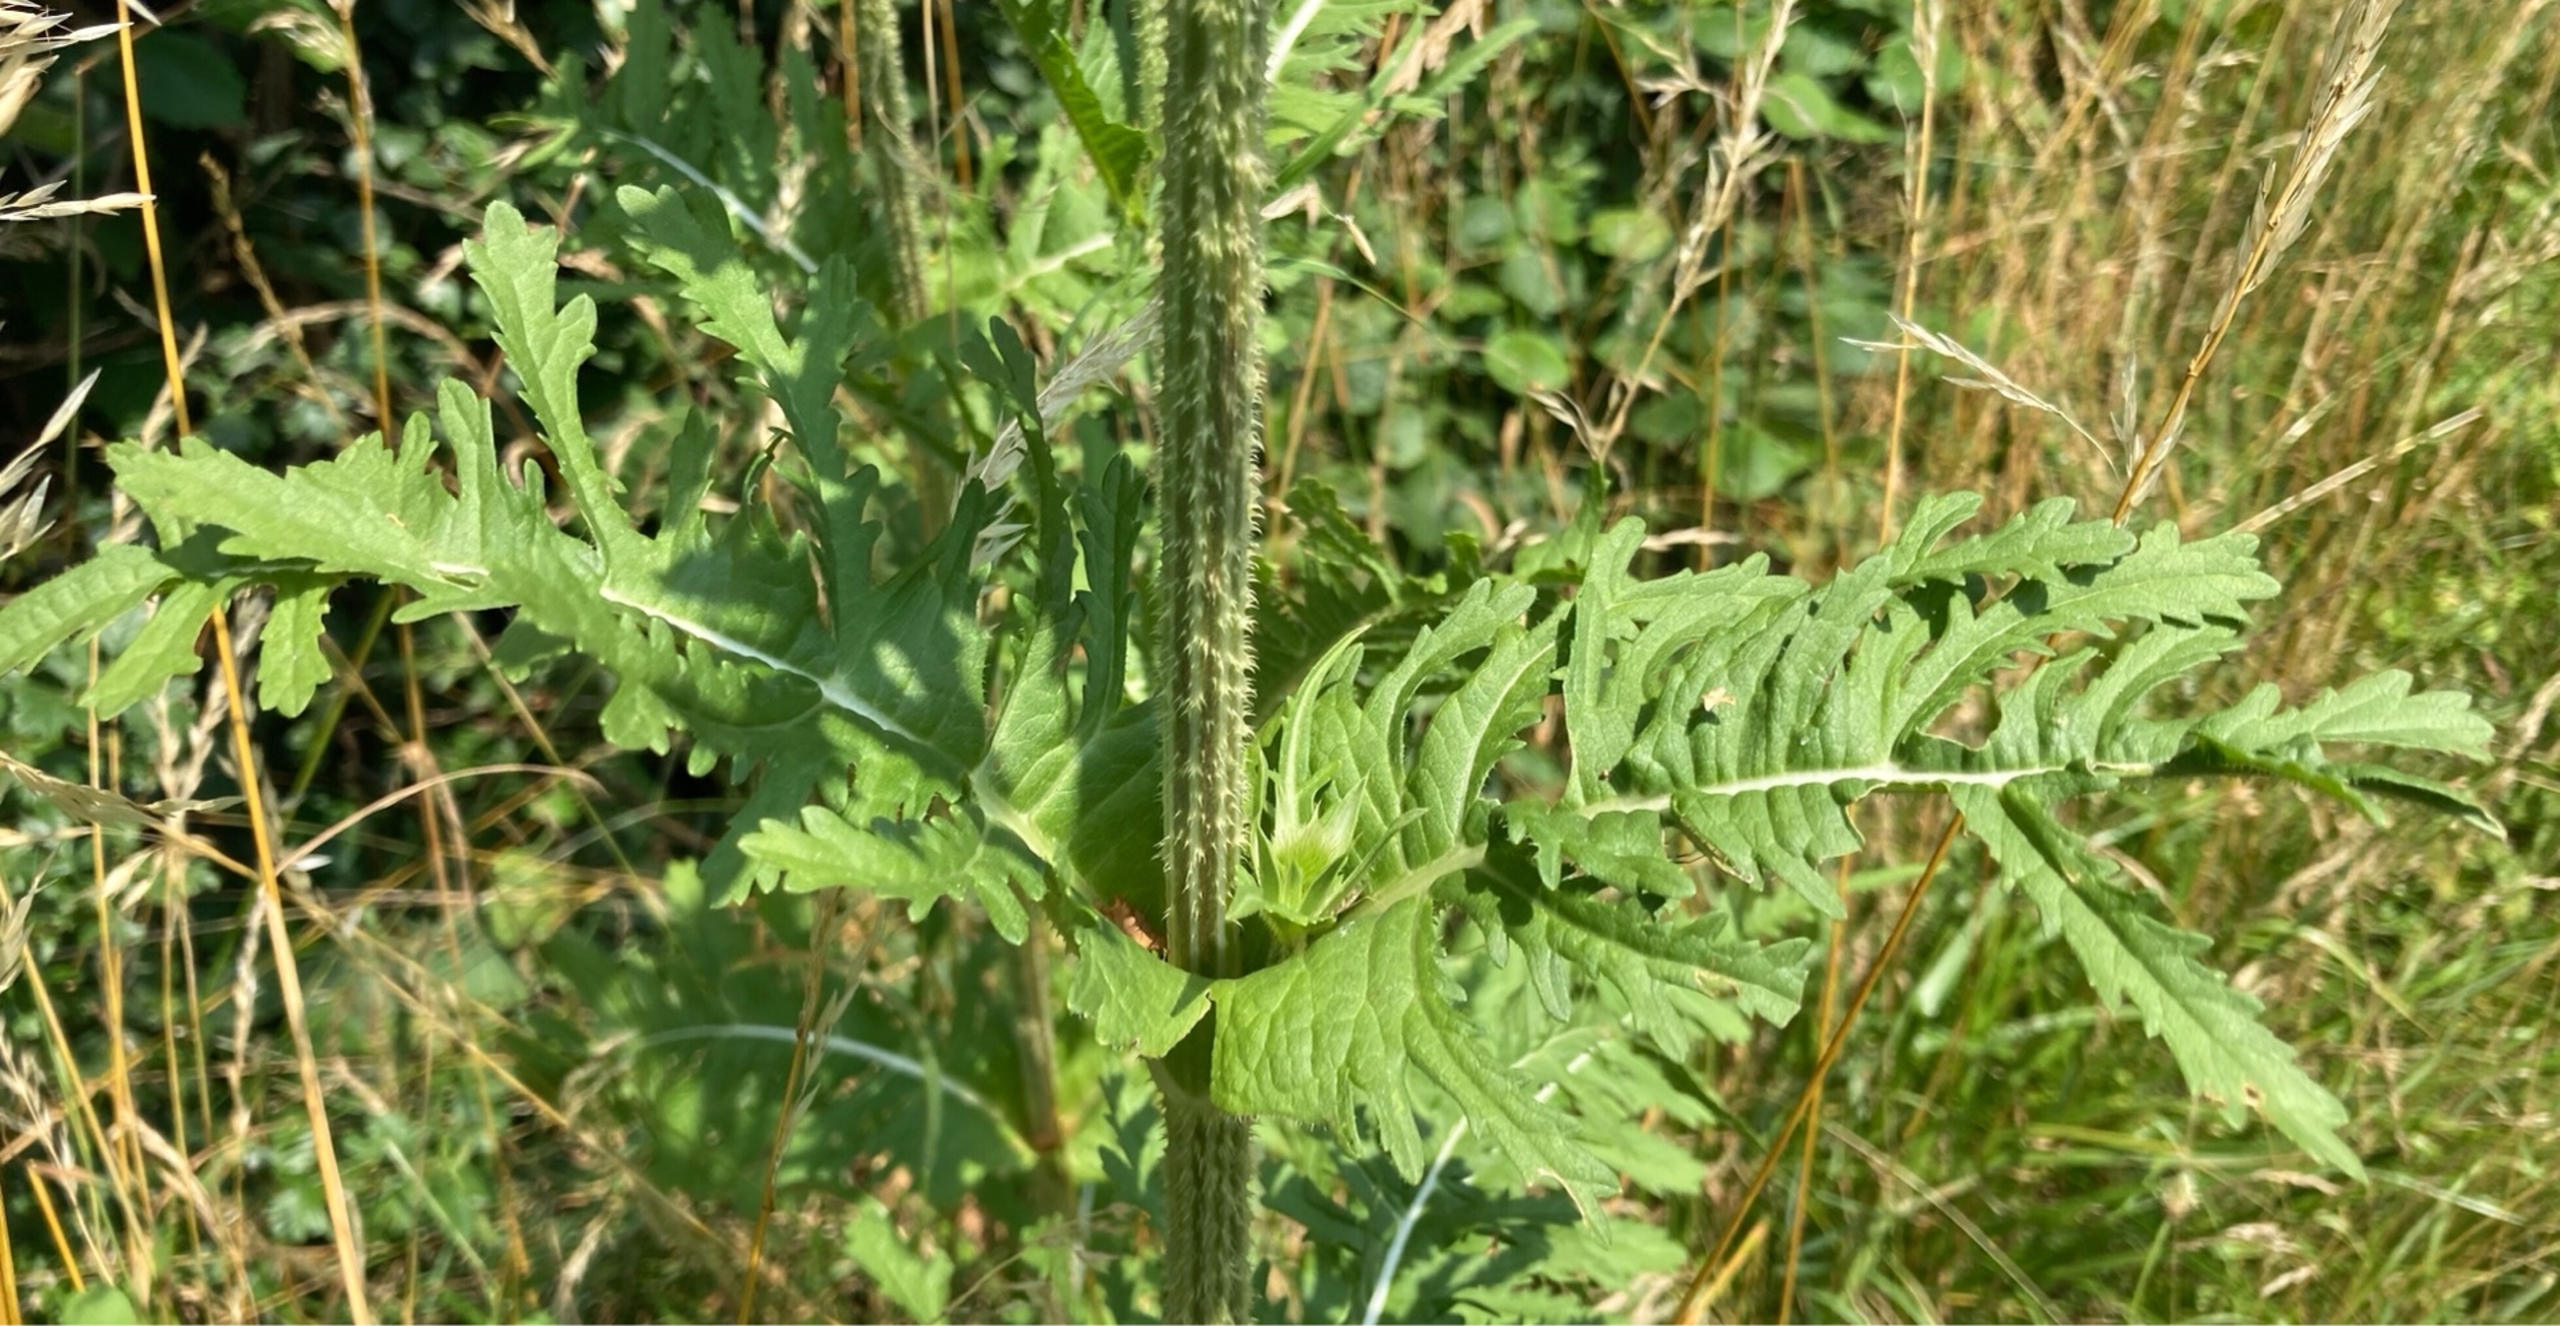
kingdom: Plantae
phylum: Tracheophyta
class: Magnoliopsida
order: Dipsacales
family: Caprifoliaceae
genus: Dipsacus
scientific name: Dipsacus laciniatus
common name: Fliget kartebolle
